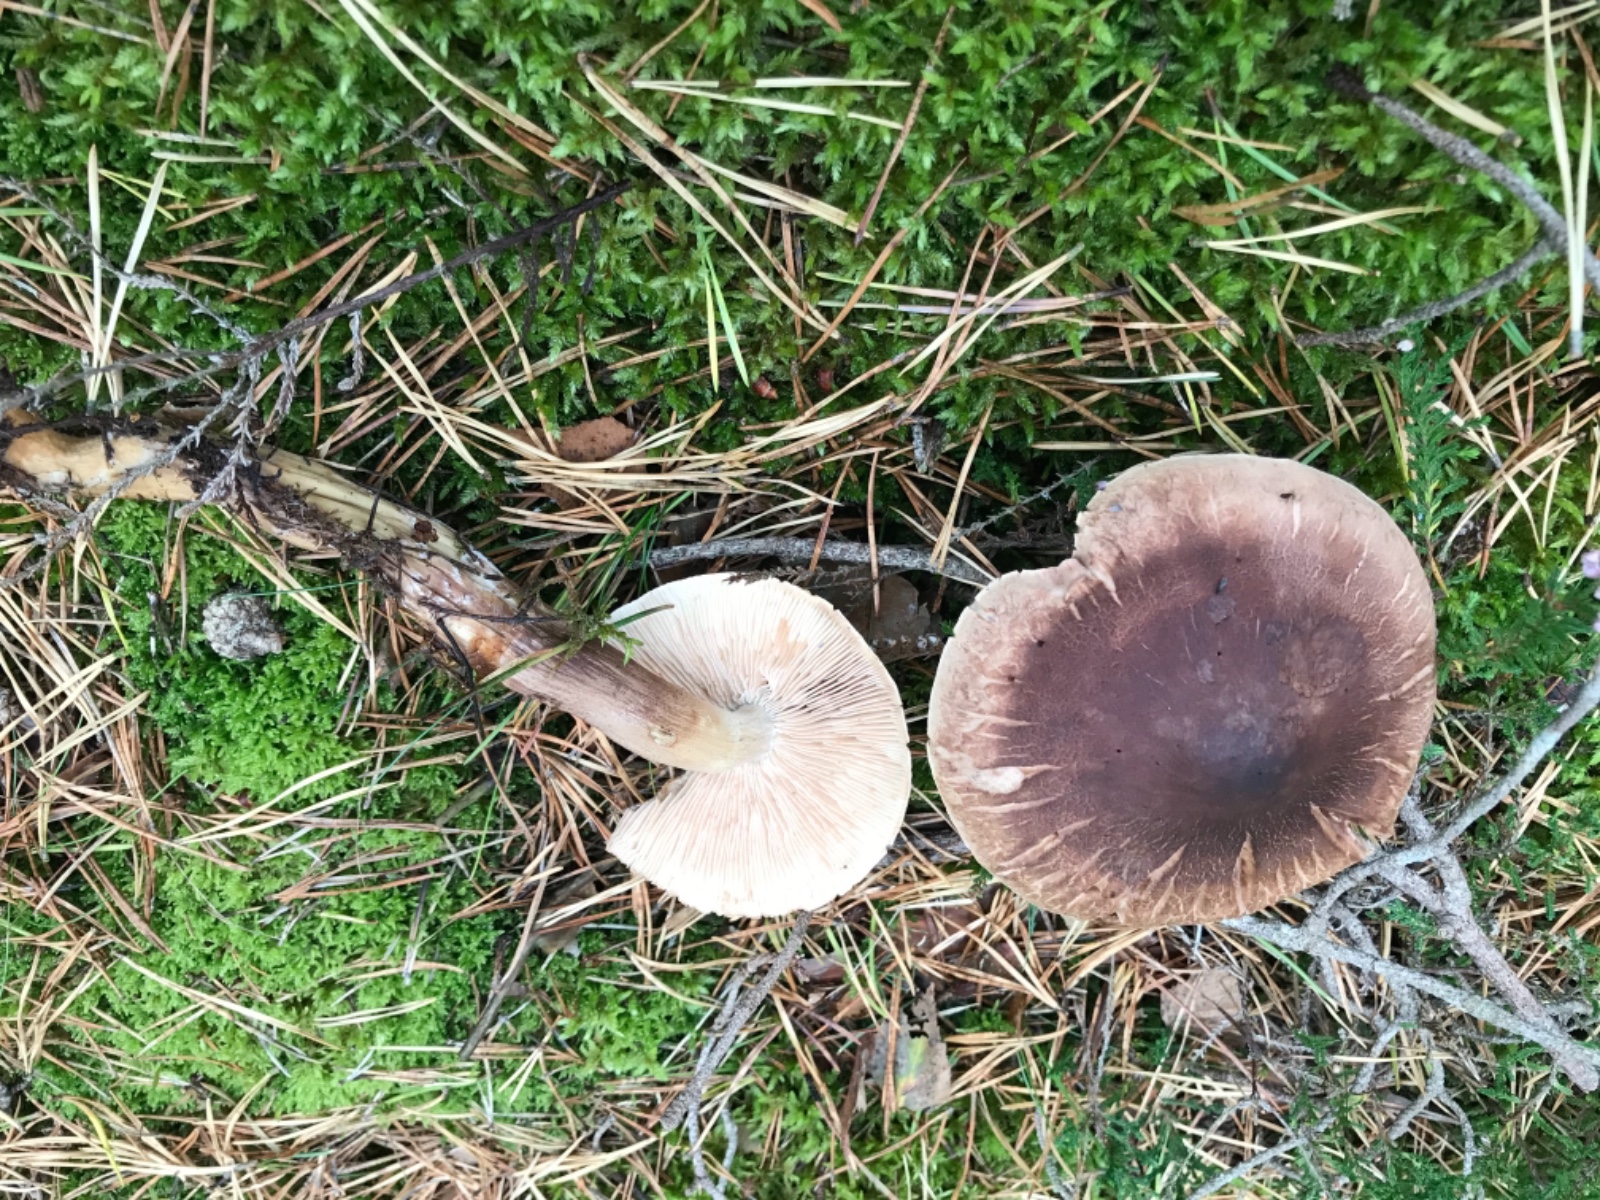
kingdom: Fungi
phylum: Basidiomycota
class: Agaricomycetes
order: Agaricales
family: Tricholomataceae
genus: Tricholoma
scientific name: Tricholoma imbricatum
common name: skællet ridderhat
